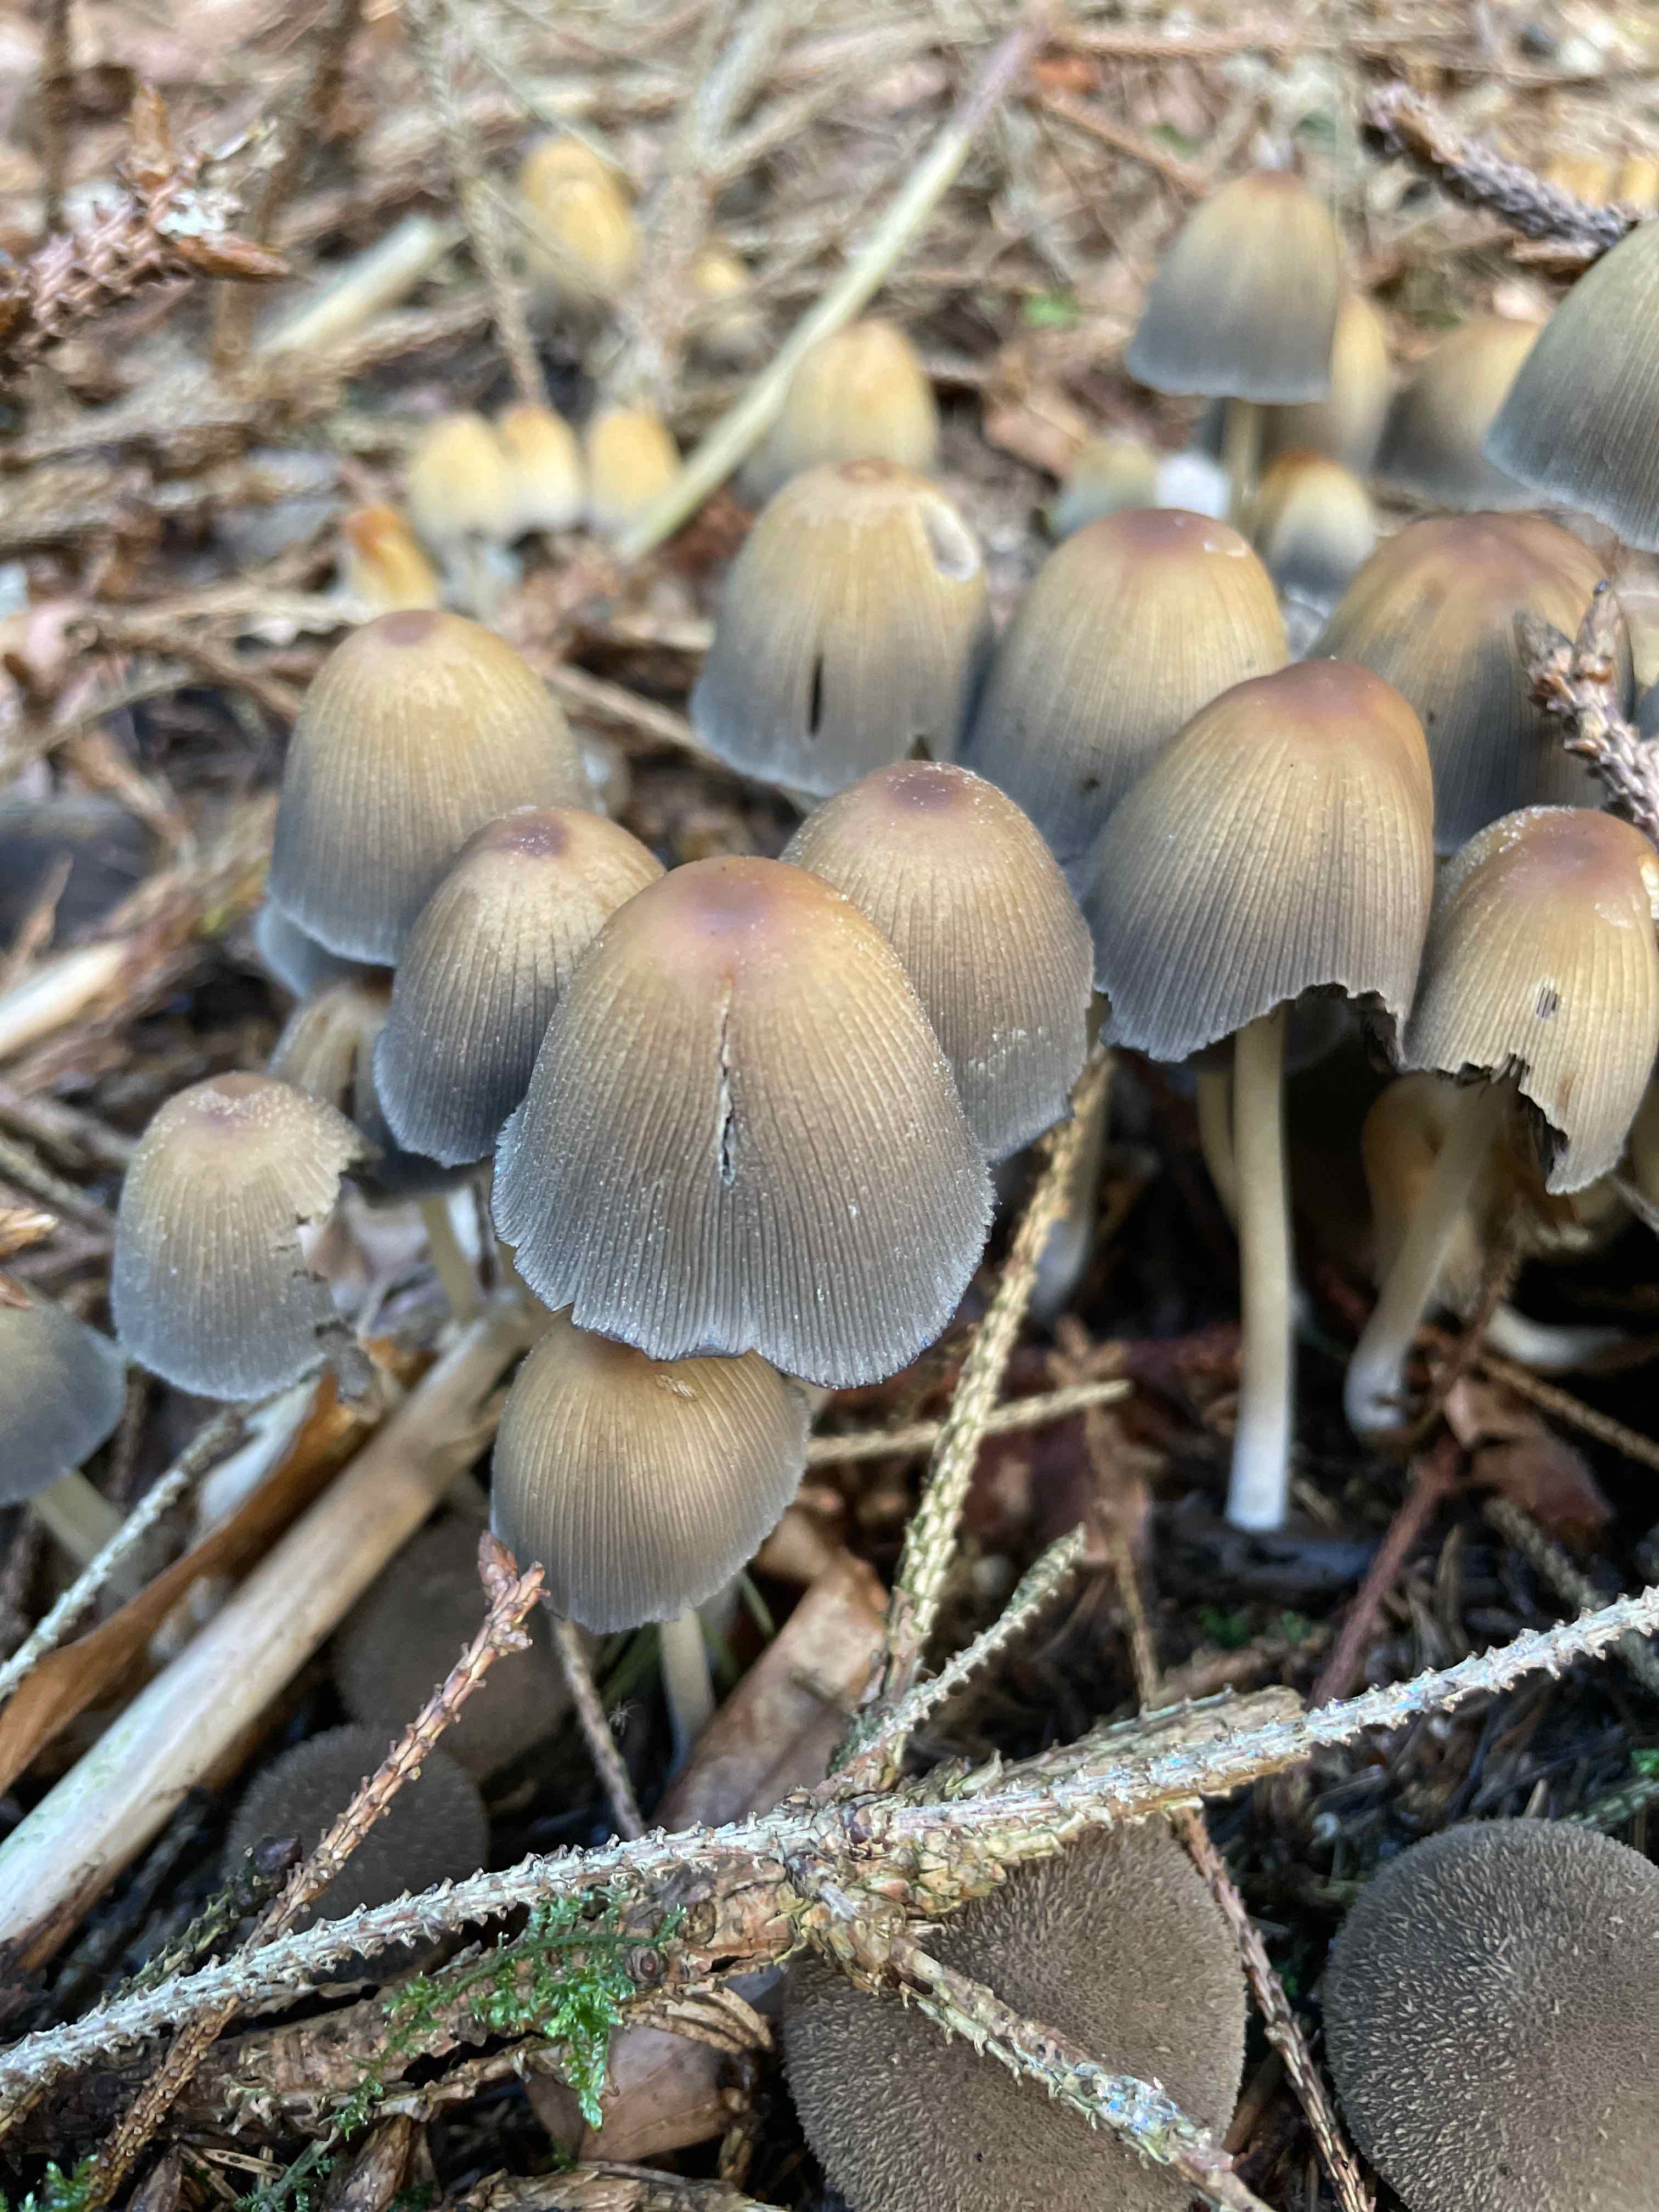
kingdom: Fungi
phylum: Basidiomycota
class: Agaricomycetes
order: Agaricales
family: Psathyrellaceae
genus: Coprinellus
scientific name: Coprinellus
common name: blækhat
